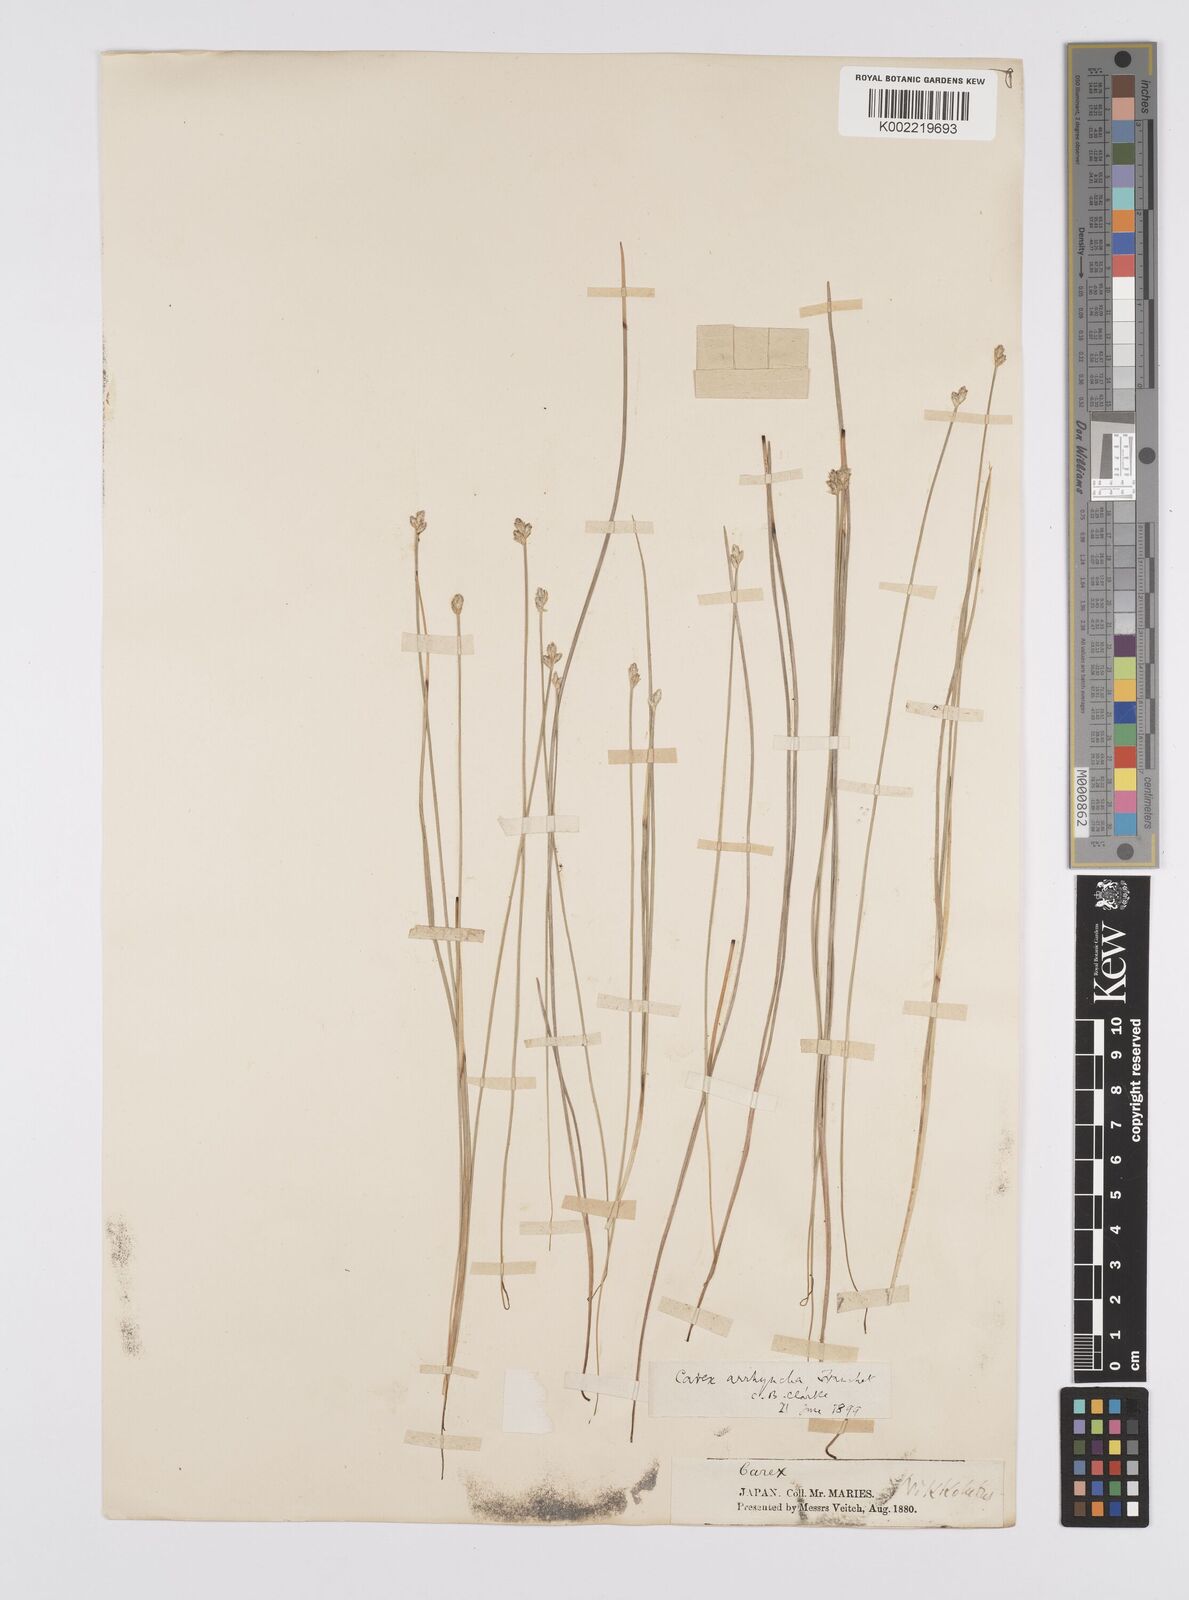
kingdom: Plantae
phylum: Tracheophyta
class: Liliopsida
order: Poales
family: Cyperaceae
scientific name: Cyperaceae
